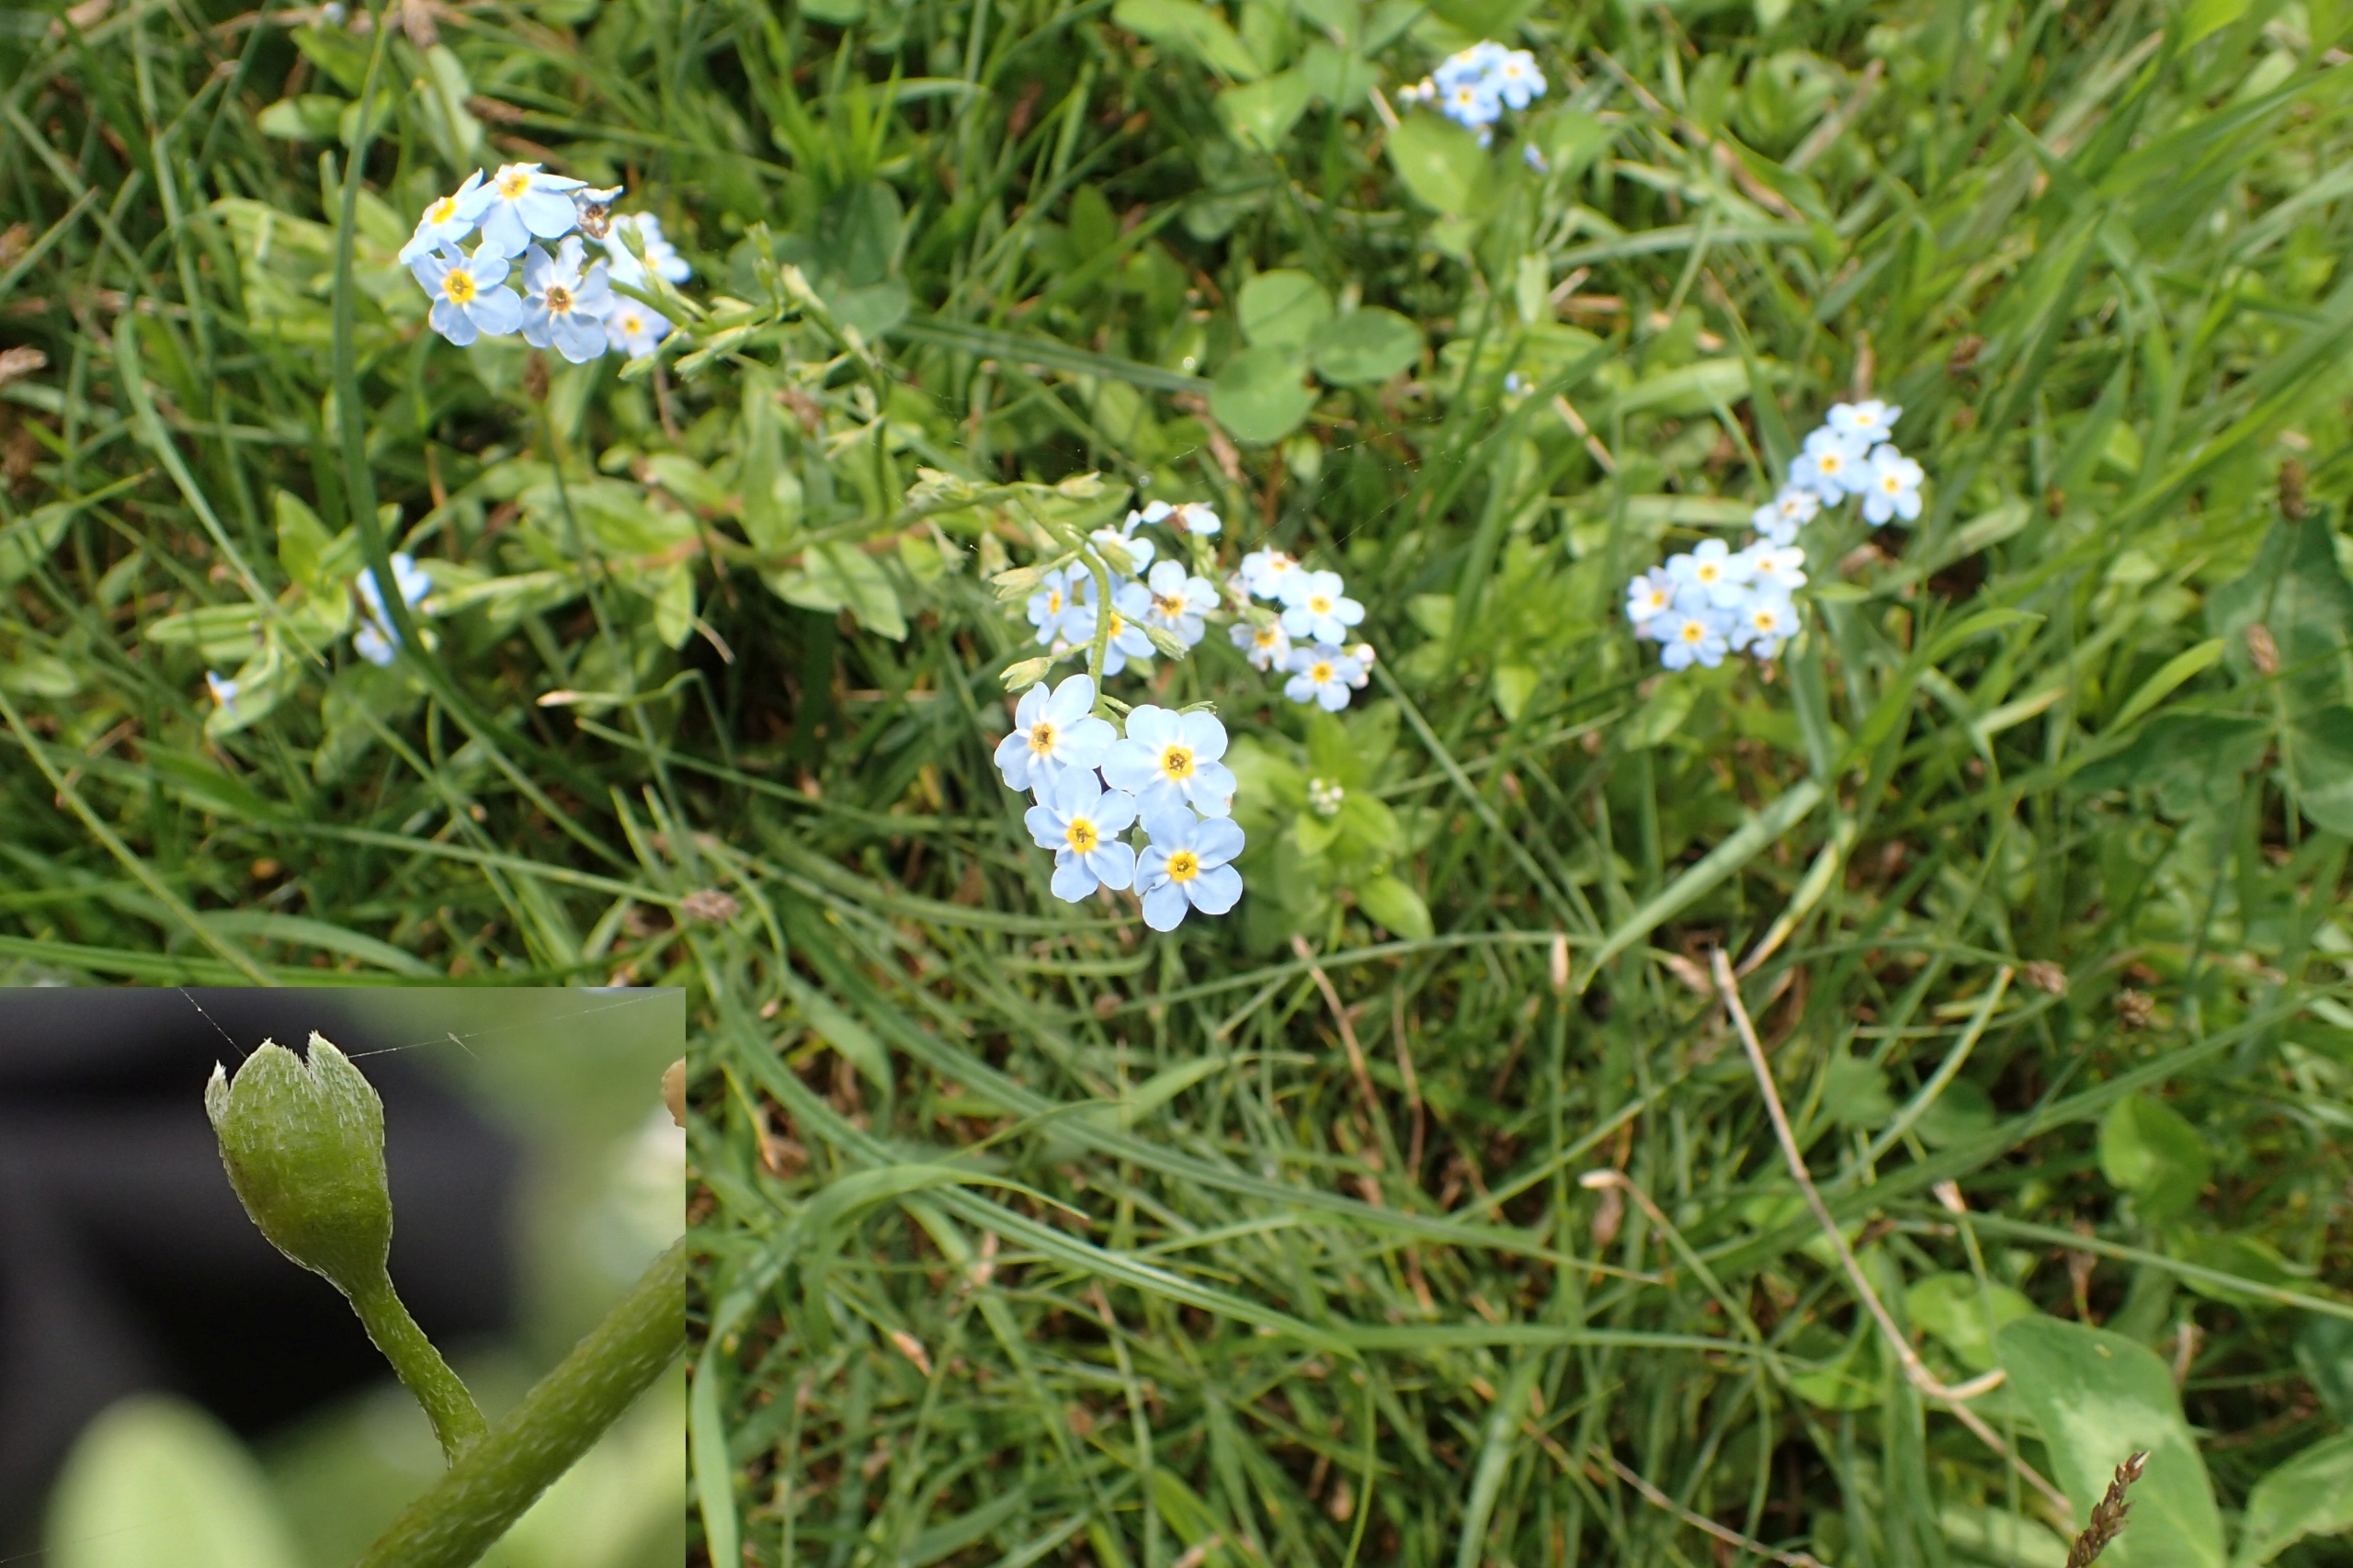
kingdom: Plantae
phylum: Tracheophyta
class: Magnoliopsida
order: Boraginales
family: Boraginaceae
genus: Myosotis
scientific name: Myosotis scorpioides
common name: Eng-forglemmigej
